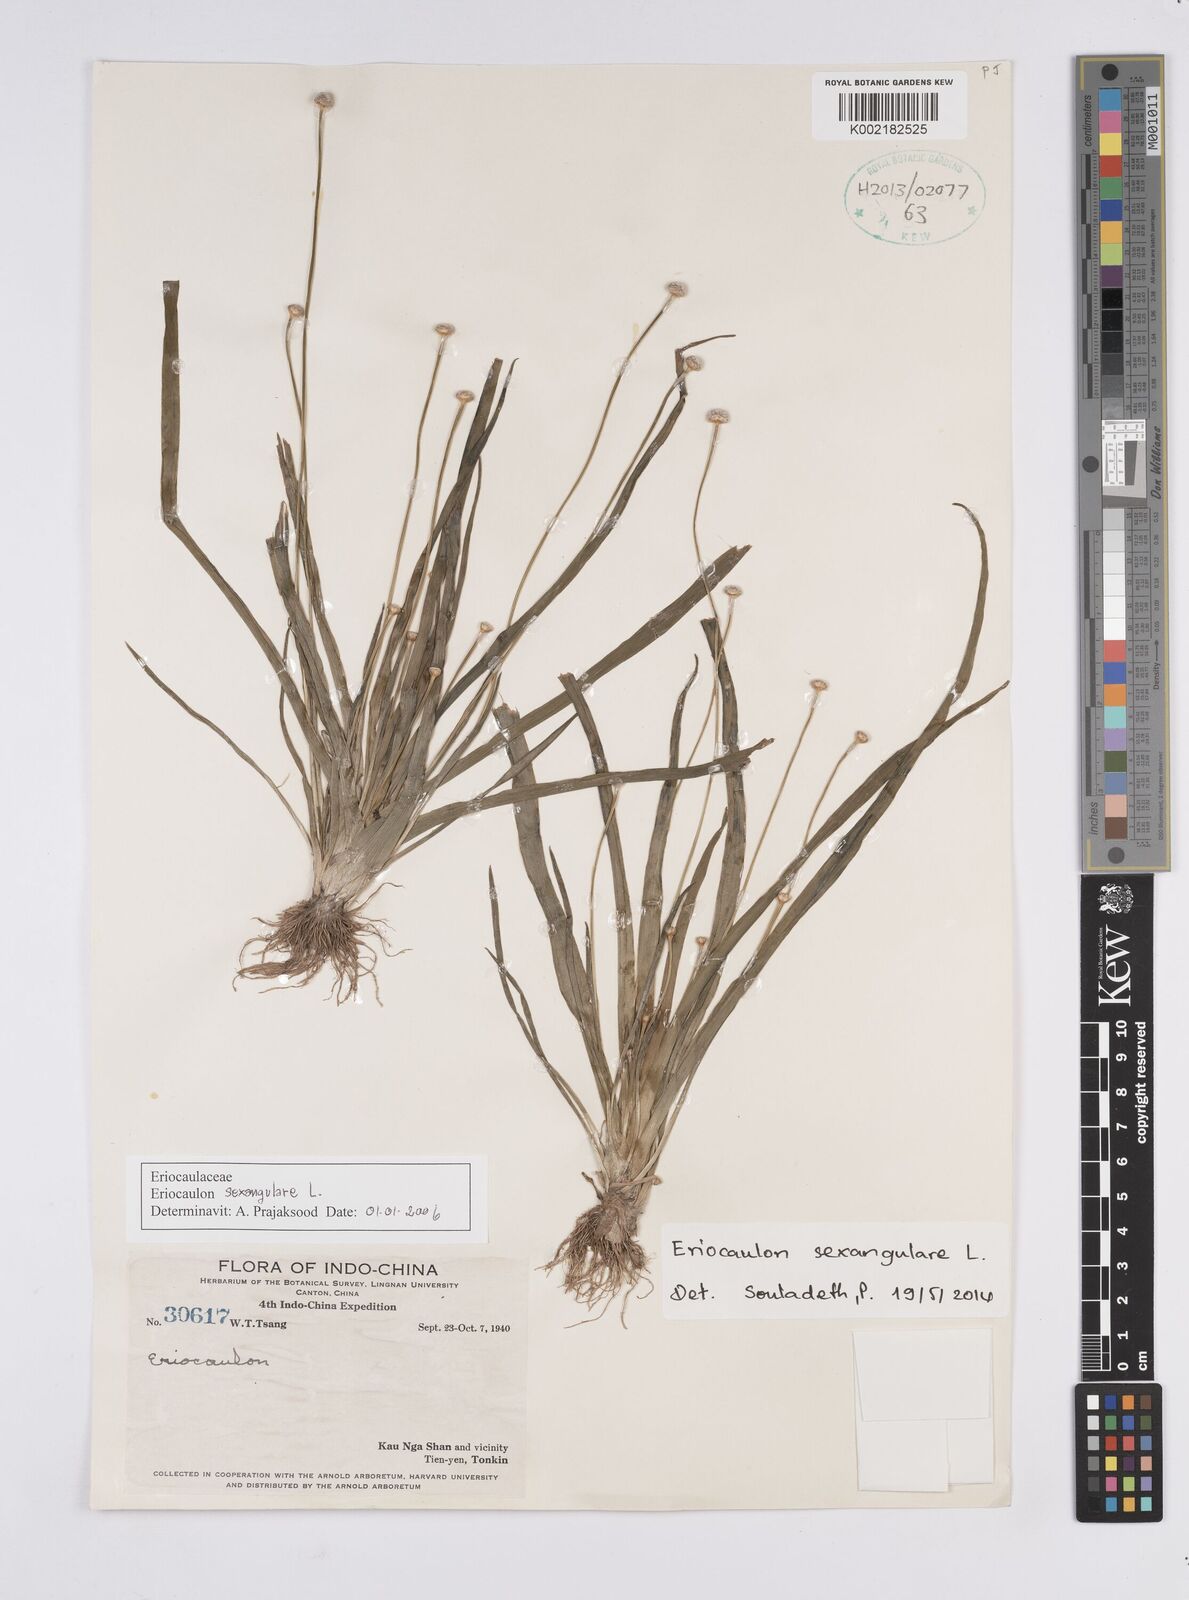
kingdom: Plantae
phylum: Tracheophyta
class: Liliopsida
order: Poales
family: Eriocaulaceae
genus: Eriocaulon
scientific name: Eriocaulon sexangulare
